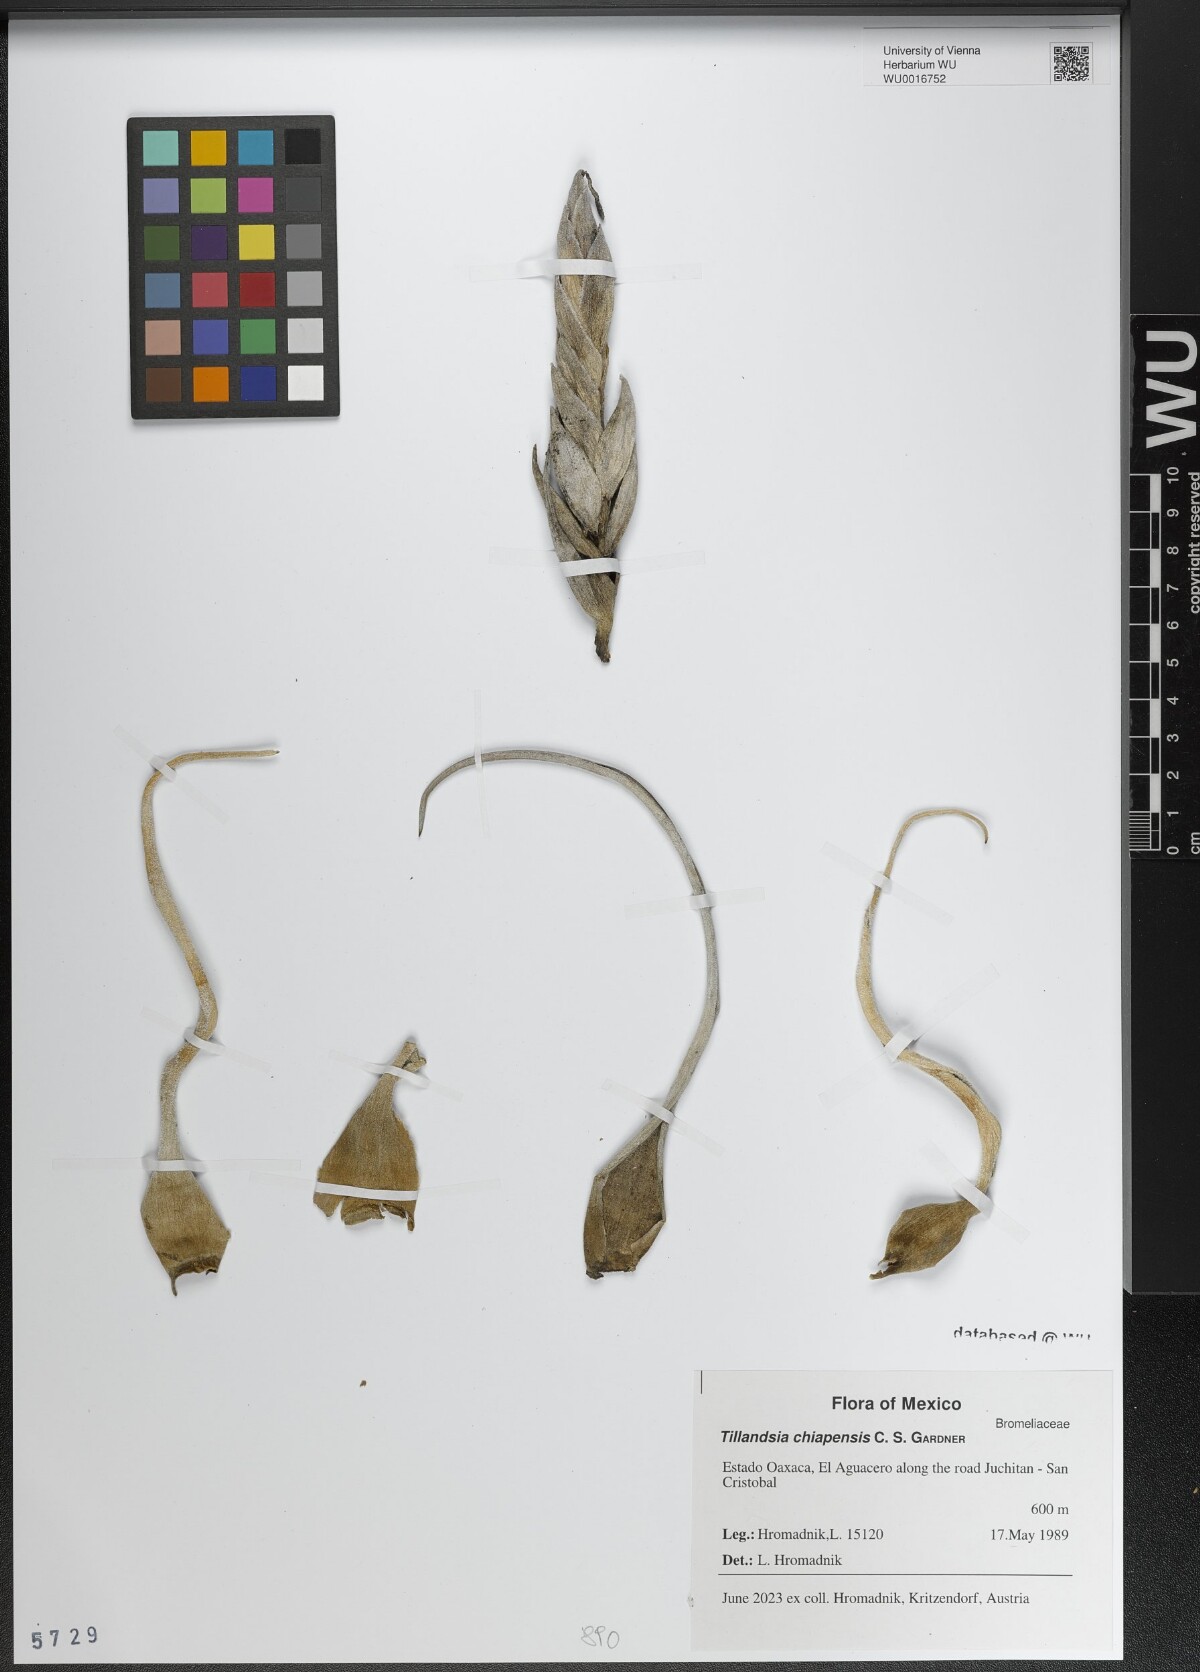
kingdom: Plantae
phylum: Tracheophyta
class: Liliopsida
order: Poales
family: Bromeliaceae
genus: Tillandsia
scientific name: Tillandsia chiapensis
